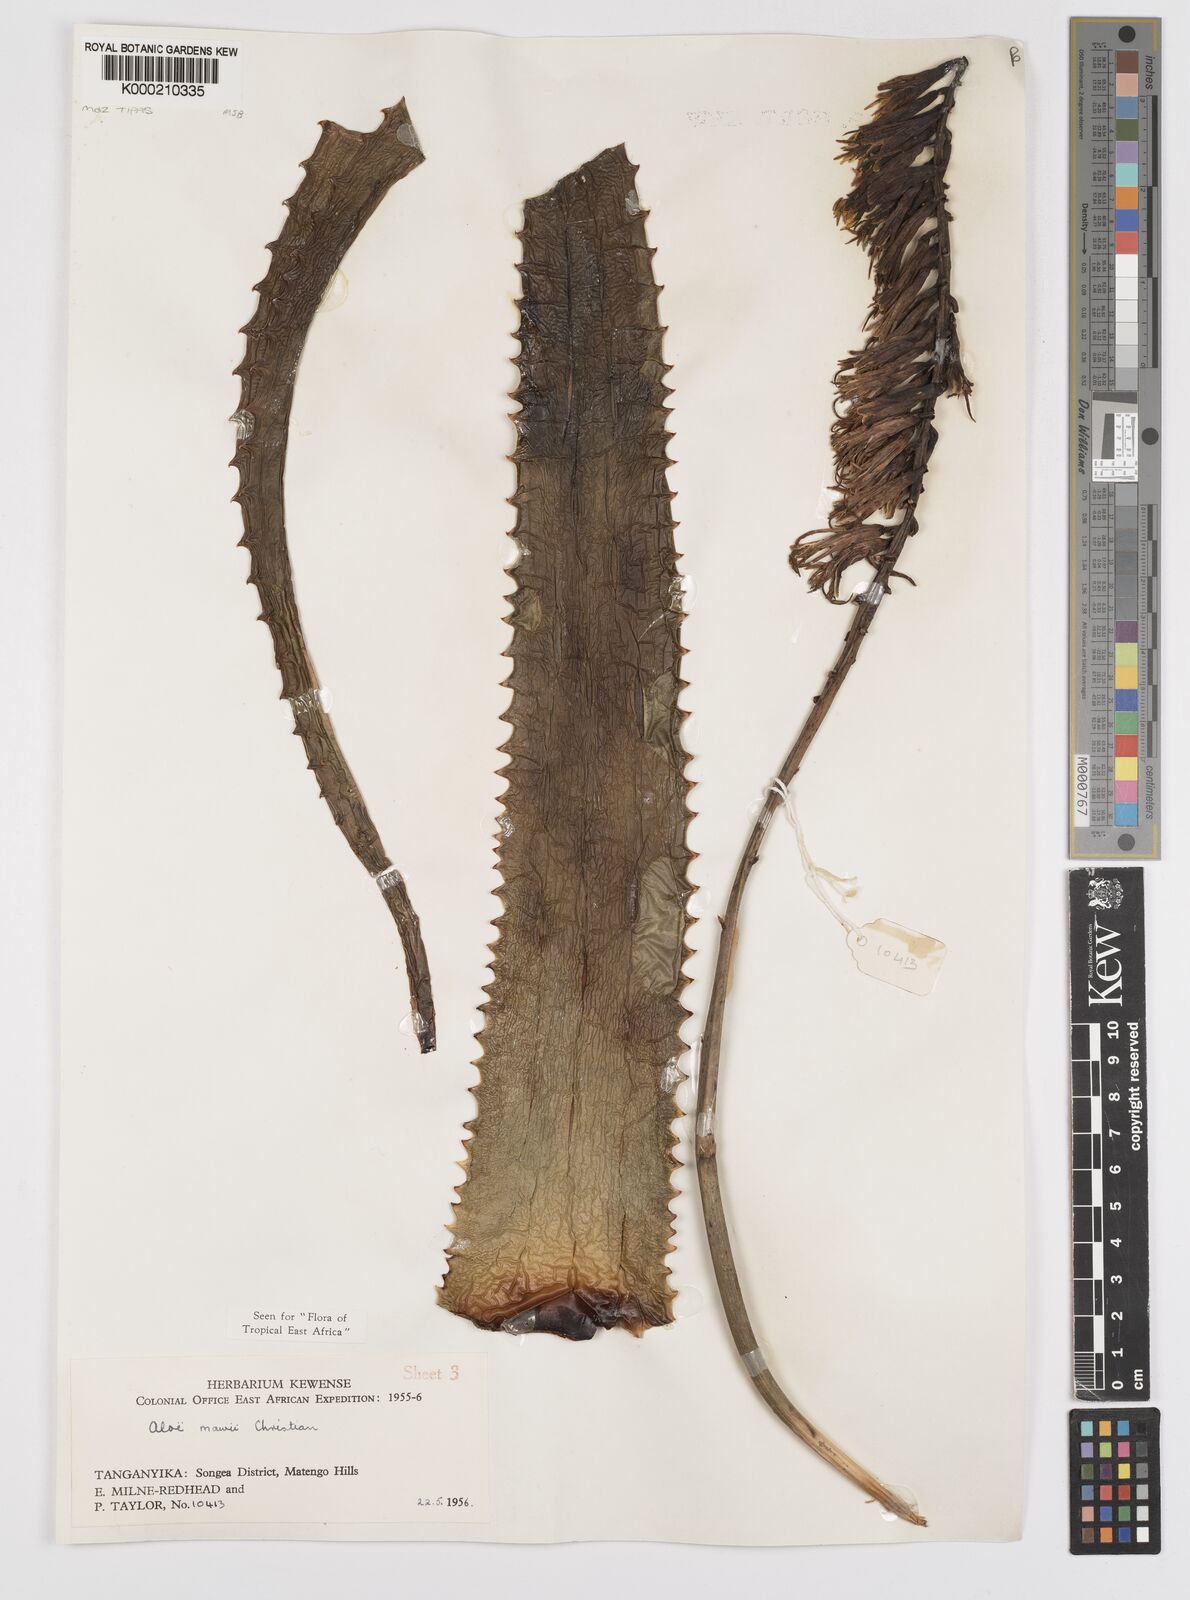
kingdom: Plantae
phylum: Tracheophyta
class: Liliopsida
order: Asparagales
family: Asphodelaceae
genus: Aloe
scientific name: Aloe mawii
